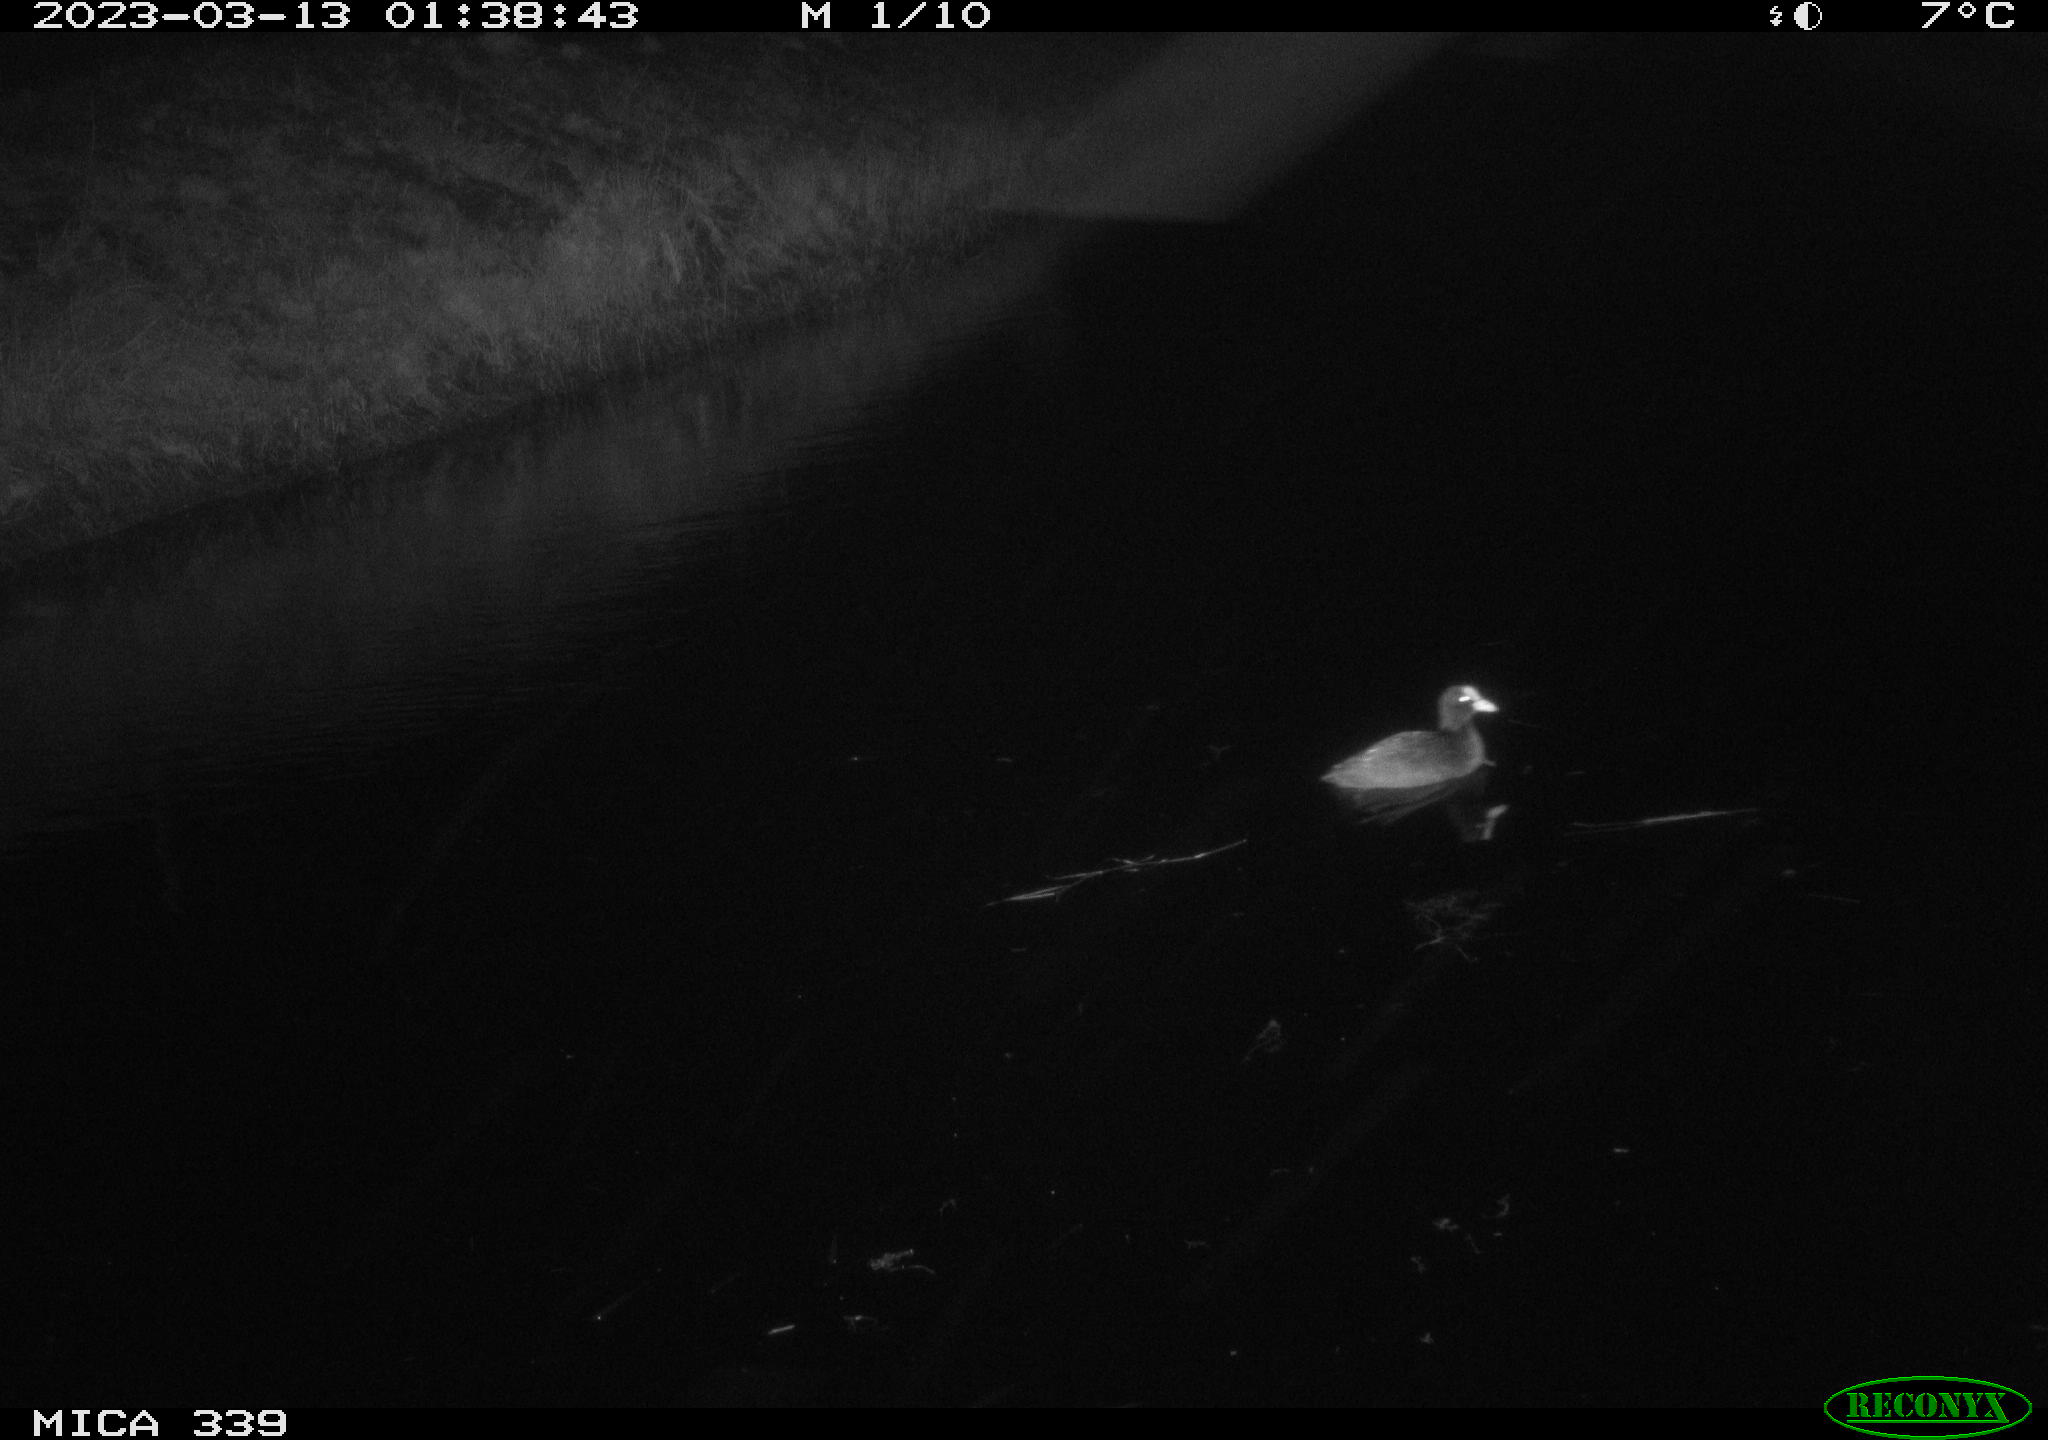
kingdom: Animalia
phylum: Chordata
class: Aves
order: Gruiformes
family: Rallidae
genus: Fulica
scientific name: Fulica atra
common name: Eurasian coot
